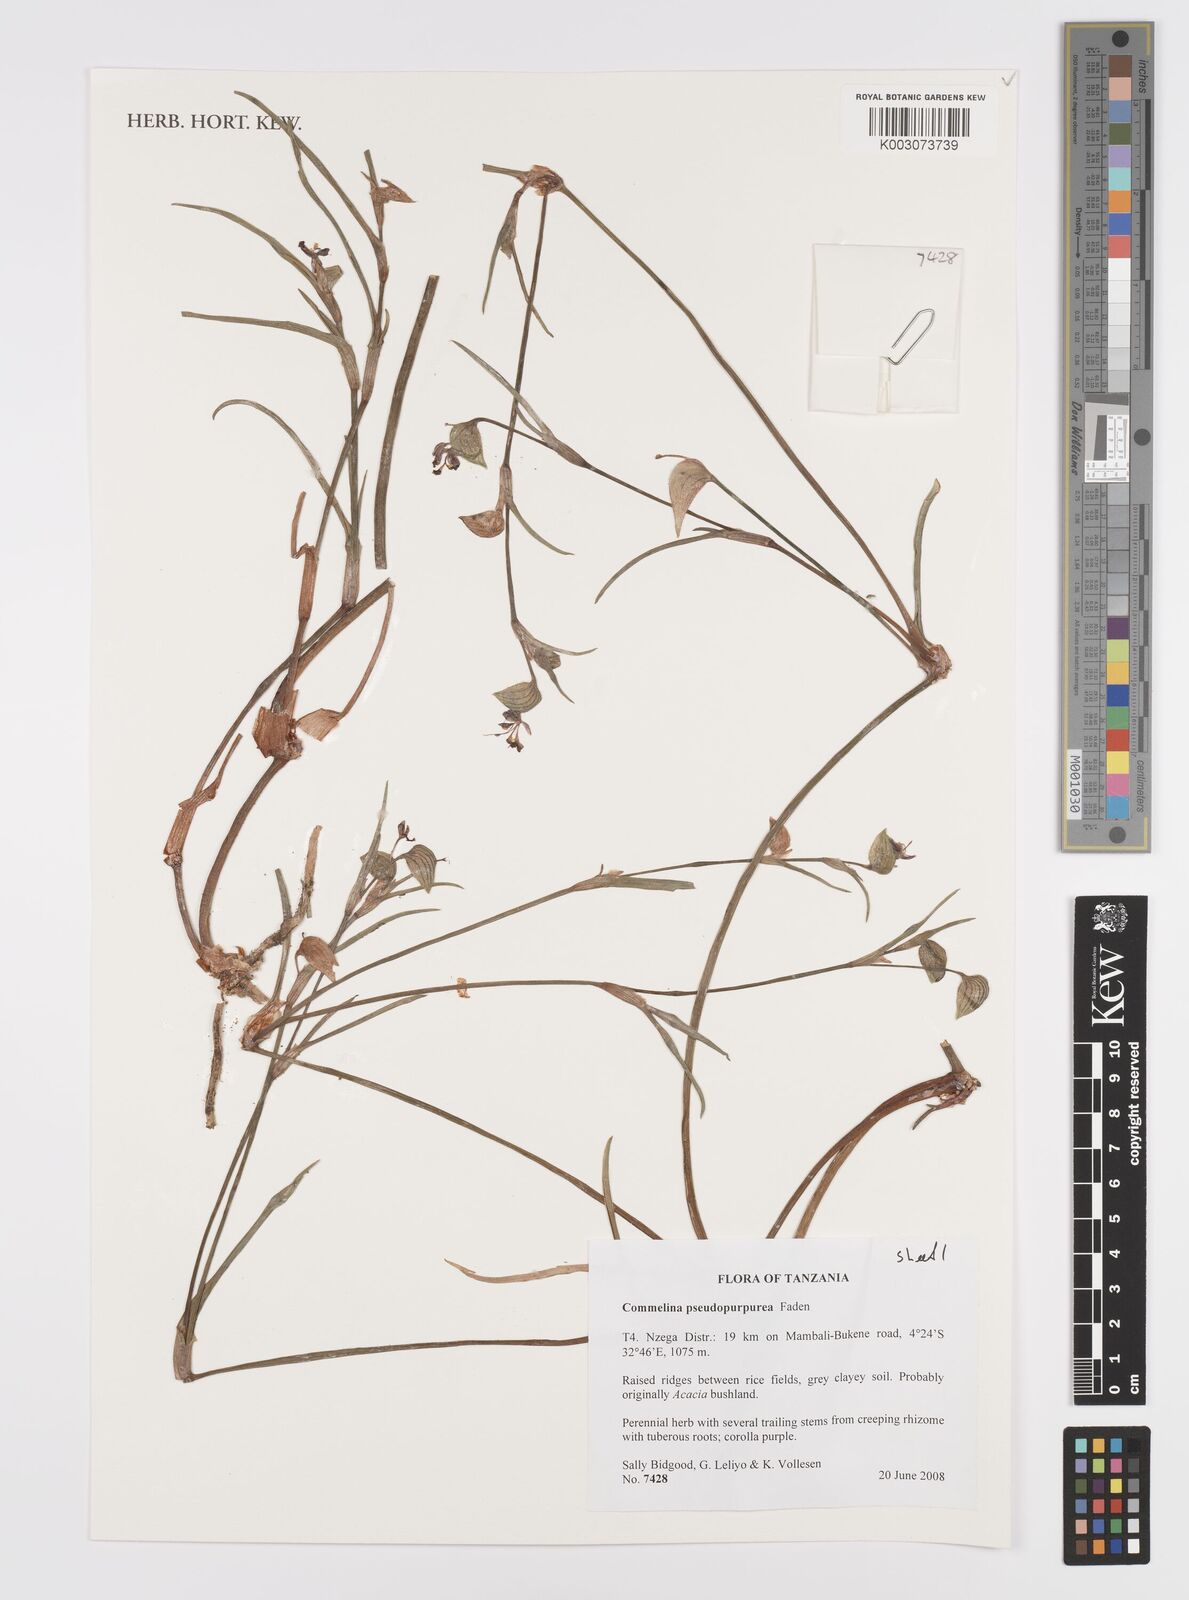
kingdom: Plantae
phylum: Tracheophyta
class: Liliopsida
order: Commelinales
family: Commelinaceae
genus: Commelina
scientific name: Commelina pseudopurpurea
